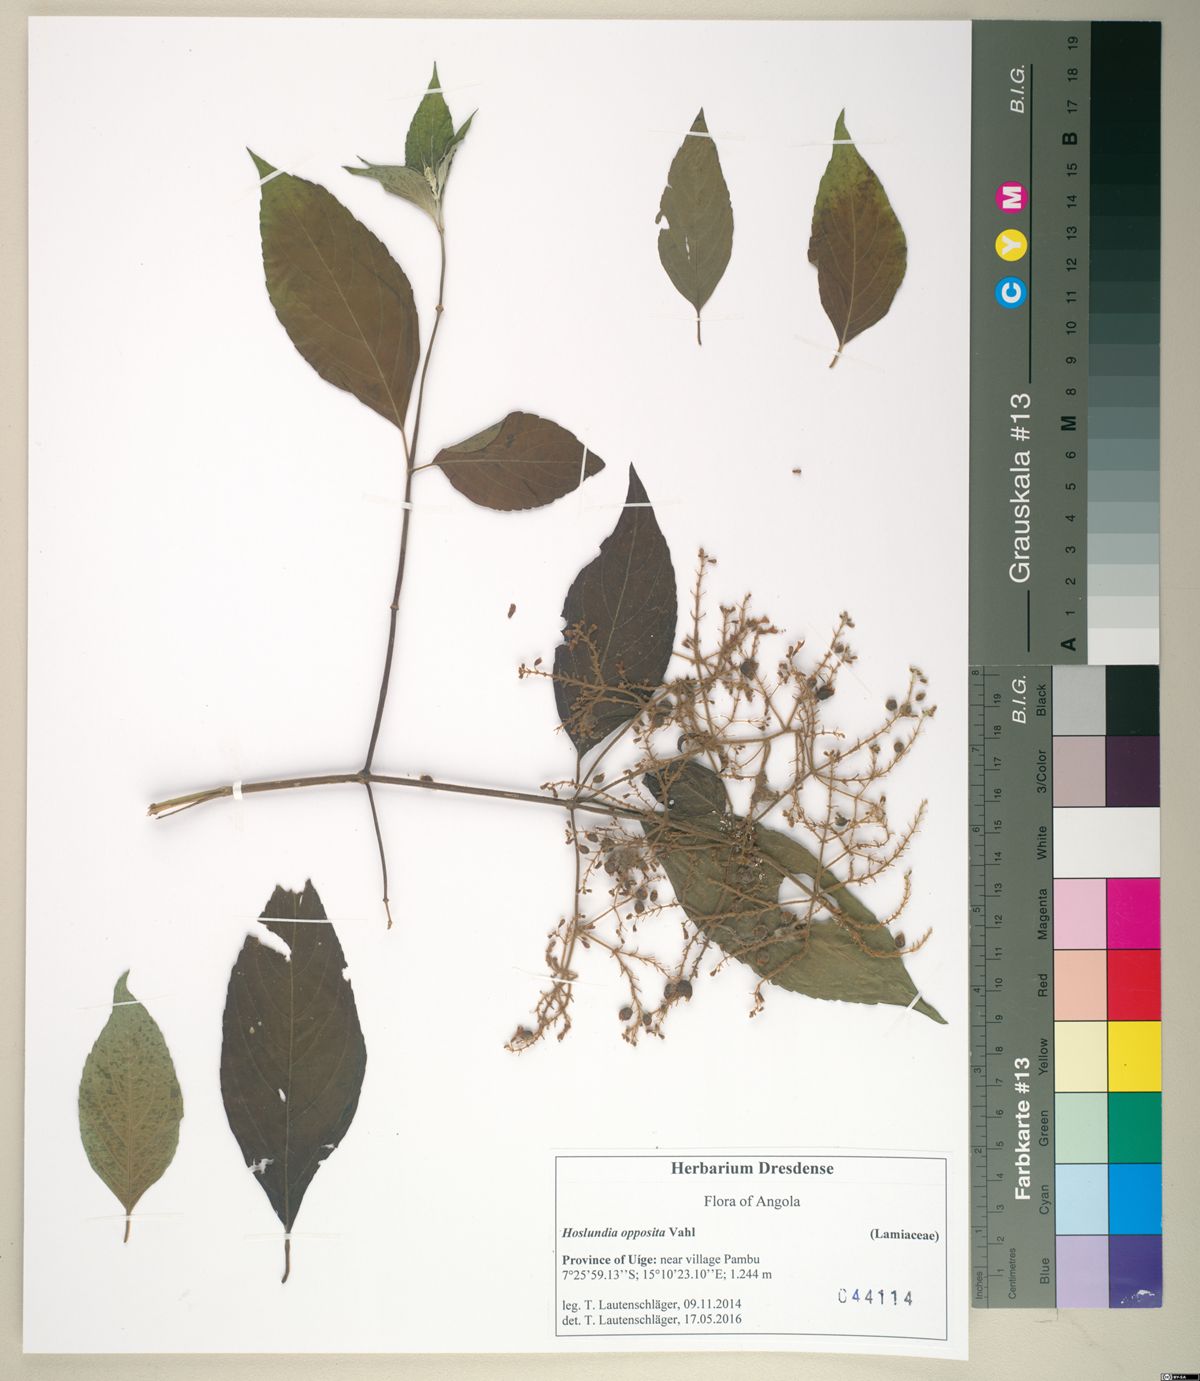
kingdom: Plantae
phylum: Tracheophyta
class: Magnoliopsida
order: Lamiales
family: Lamiaceae
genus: Hoslundia
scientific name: Hoslundia opposita
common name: Kamyuye
